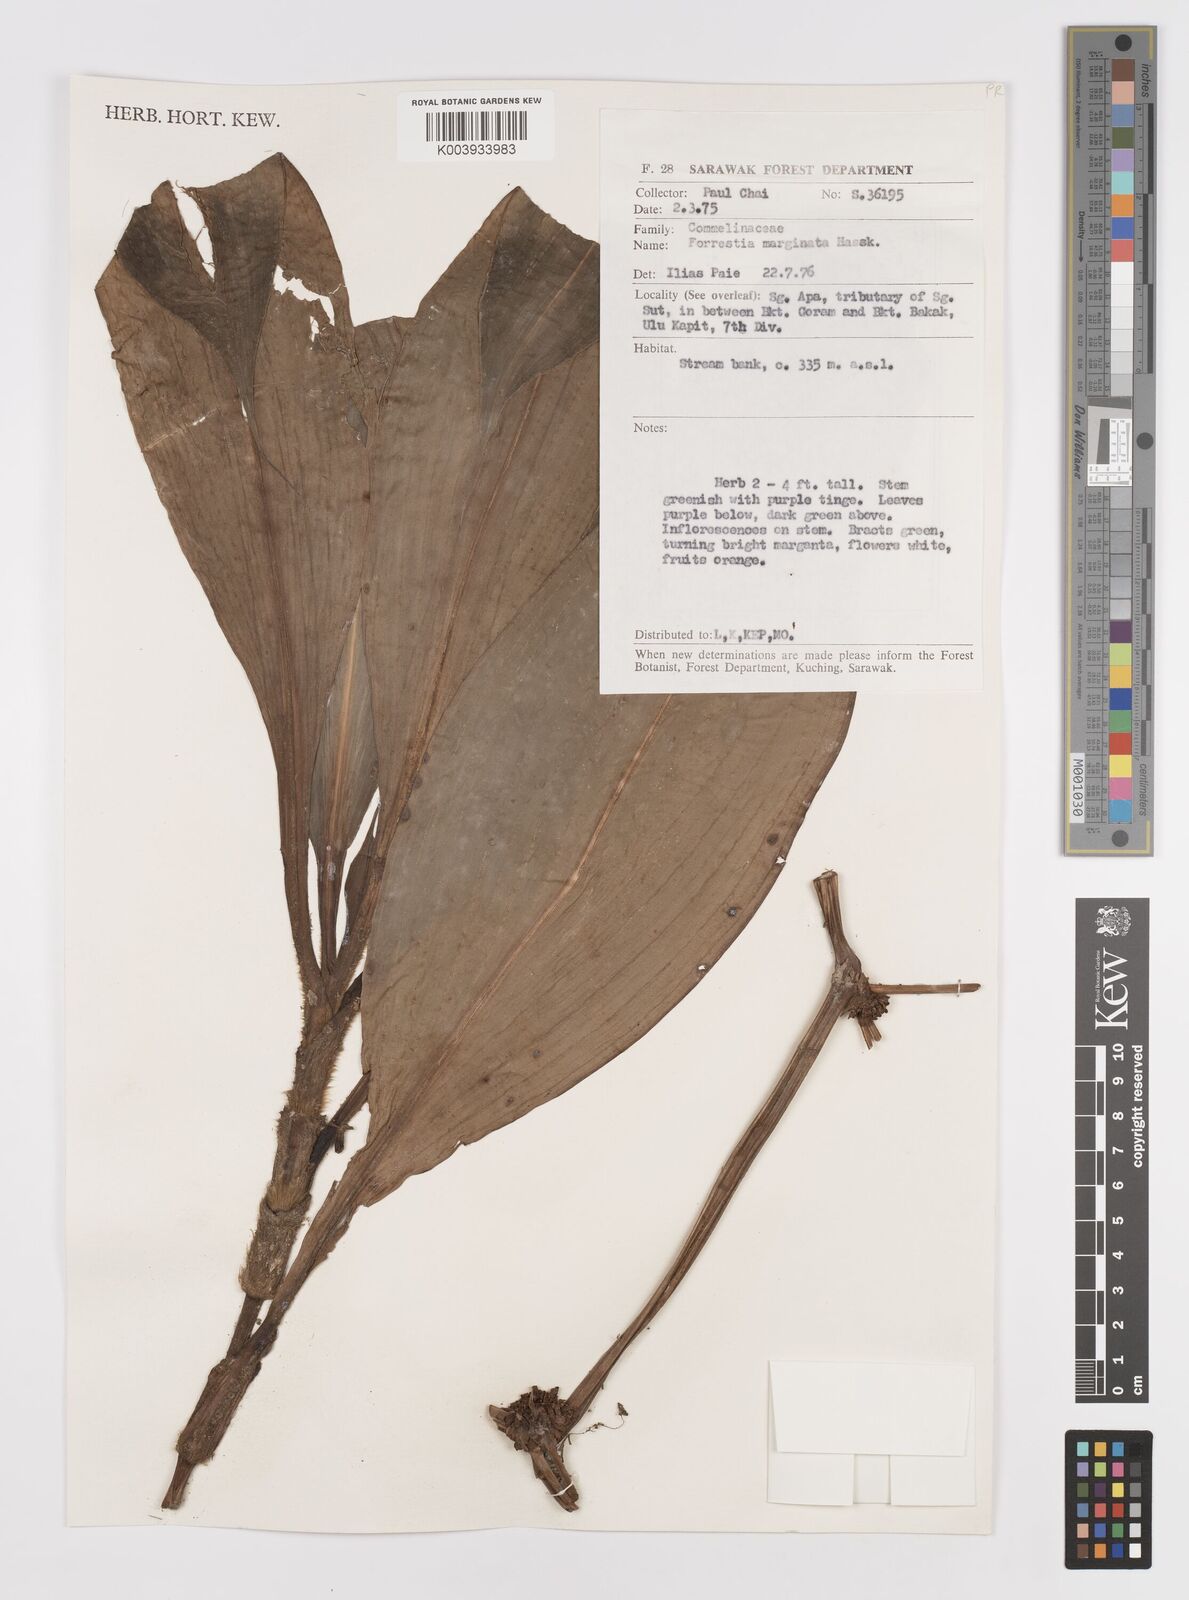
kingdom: Plantae
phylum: Tracheophyta
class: Liliopsida
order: Commelinales
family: Commelinaceae
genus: Amischotolype
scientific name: Amischotolype marginata
